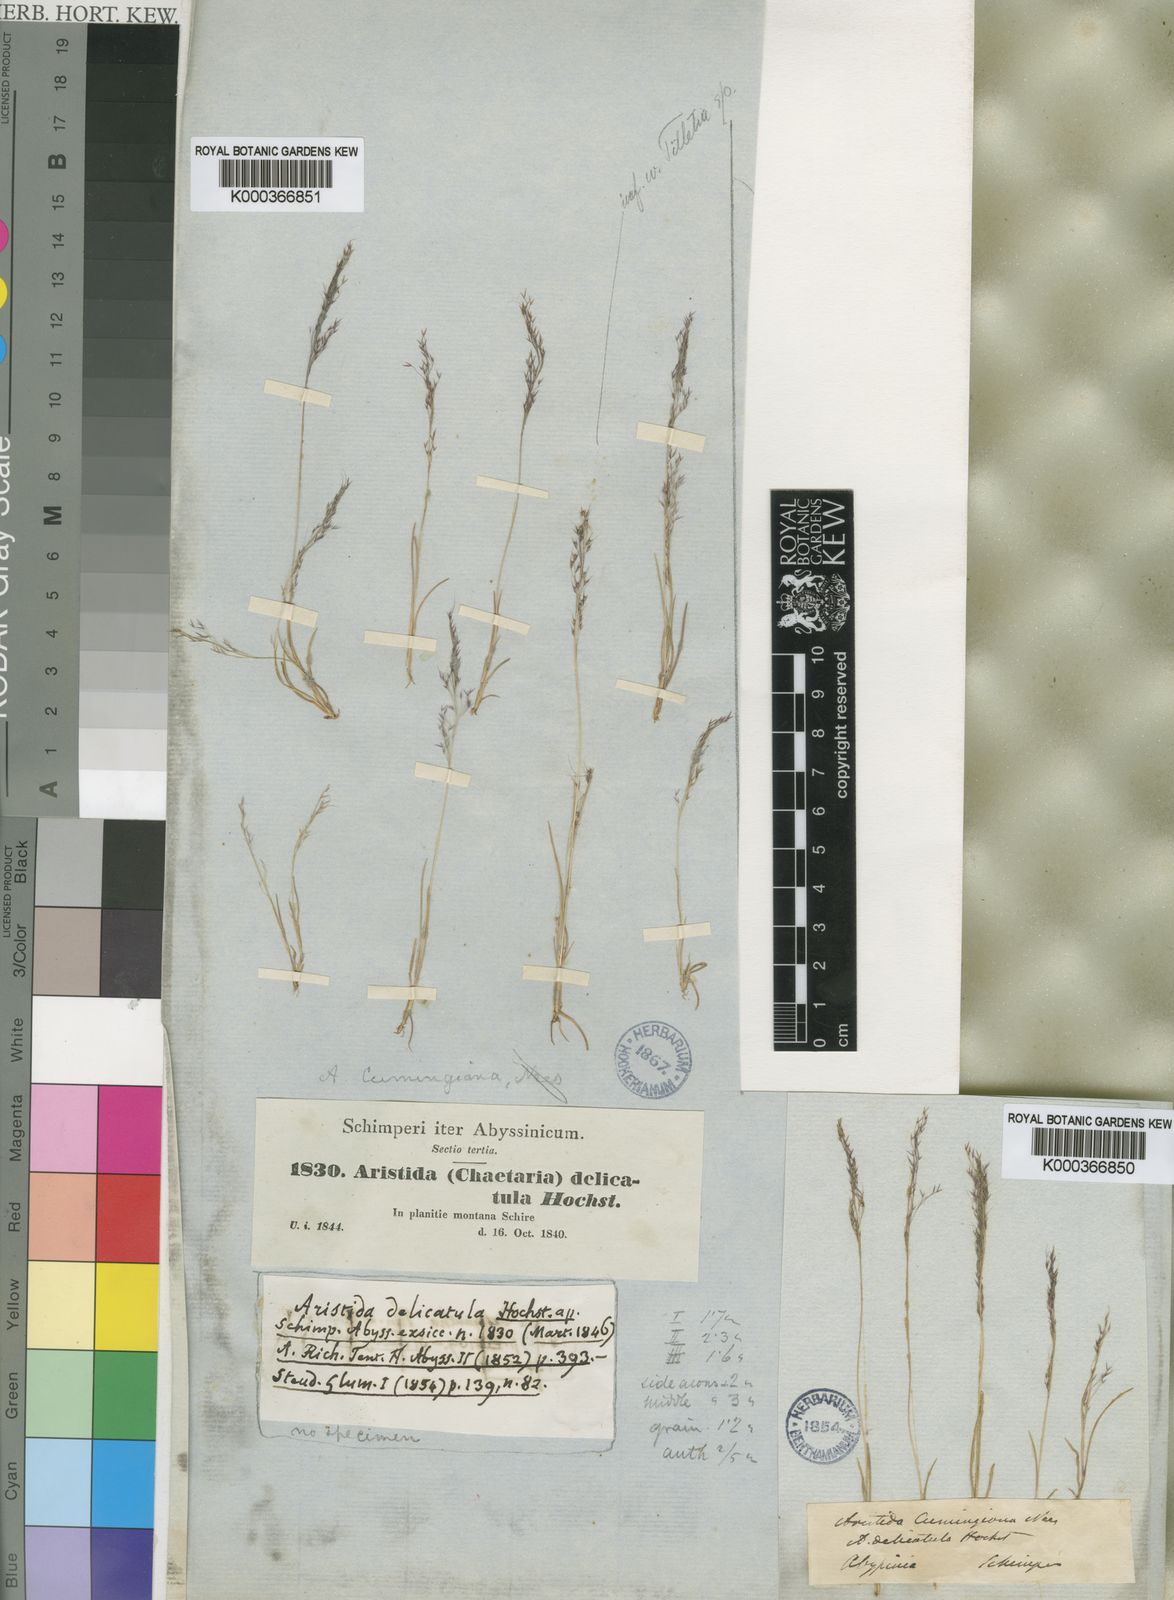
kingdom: Plantae
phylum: Tracheophyta
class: Liliopsida
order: Poales
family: Poaceae
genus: Aristida
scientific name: Aristida cumingiana
